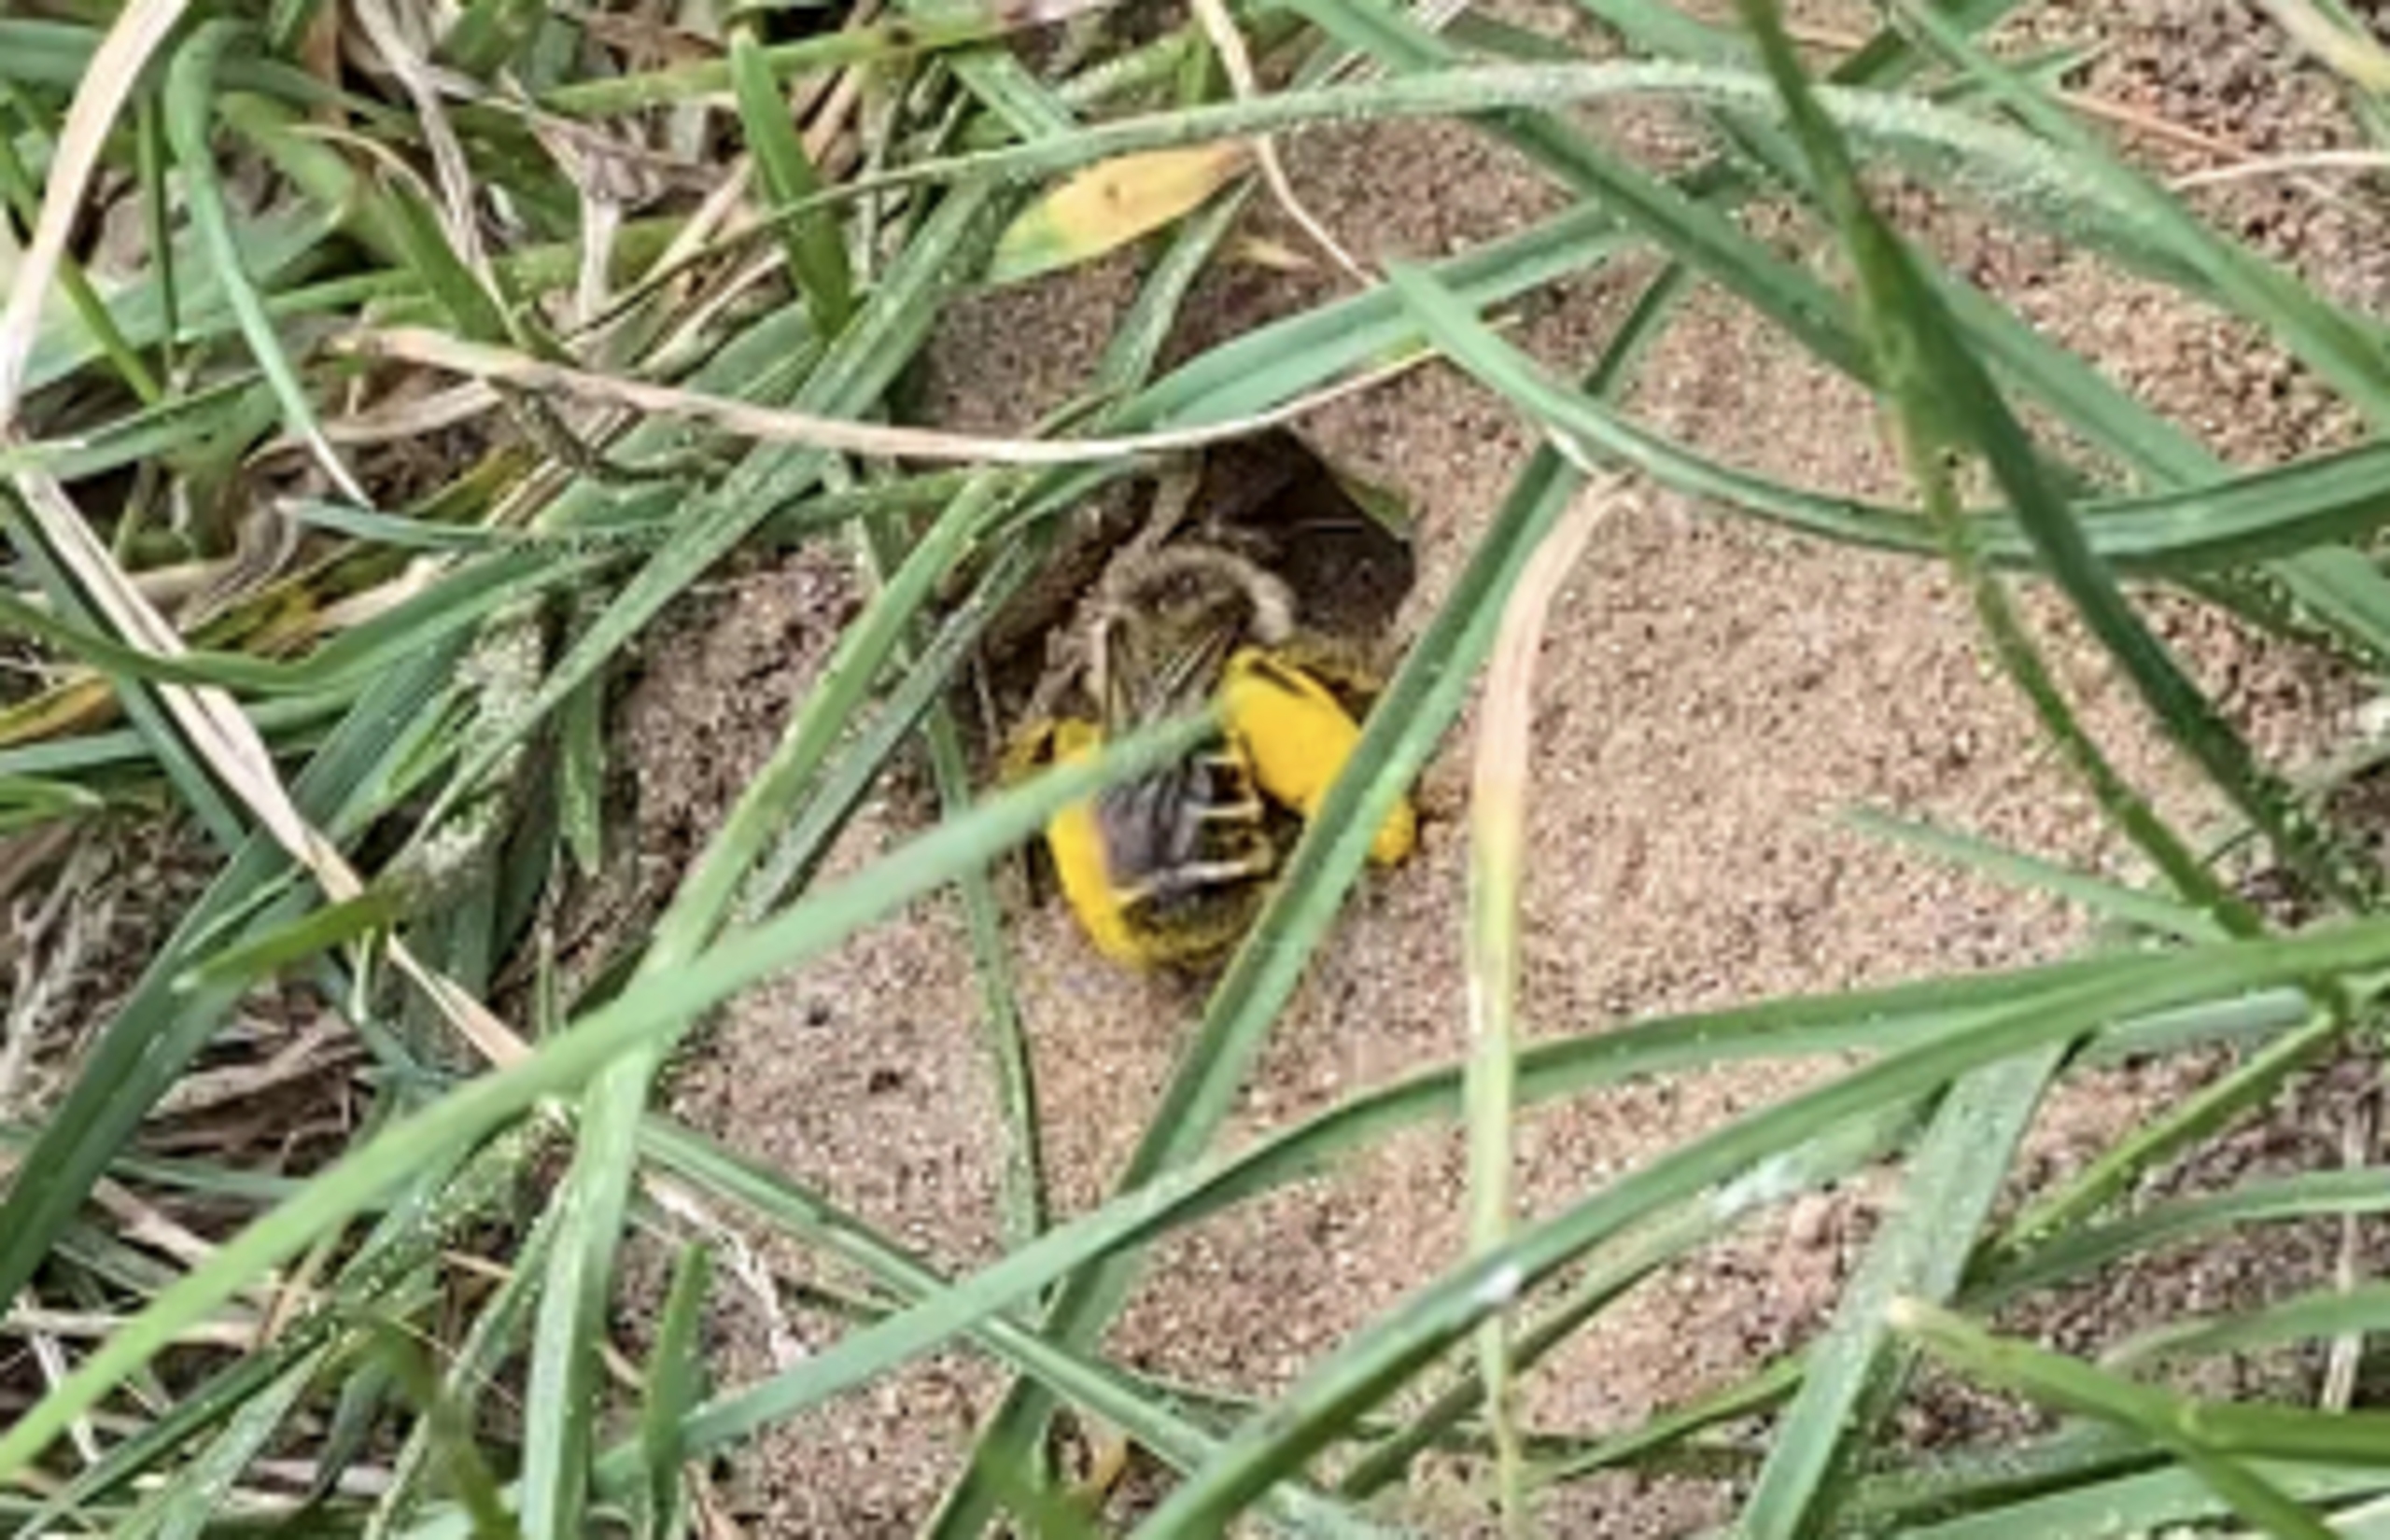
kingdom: Animalia
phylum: Arthropoda
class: Insecta
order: Hymenoptera
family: Melittidae
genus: Dasypoda
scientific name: Dasypoda hirtipes
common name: Pragtbuksebi
